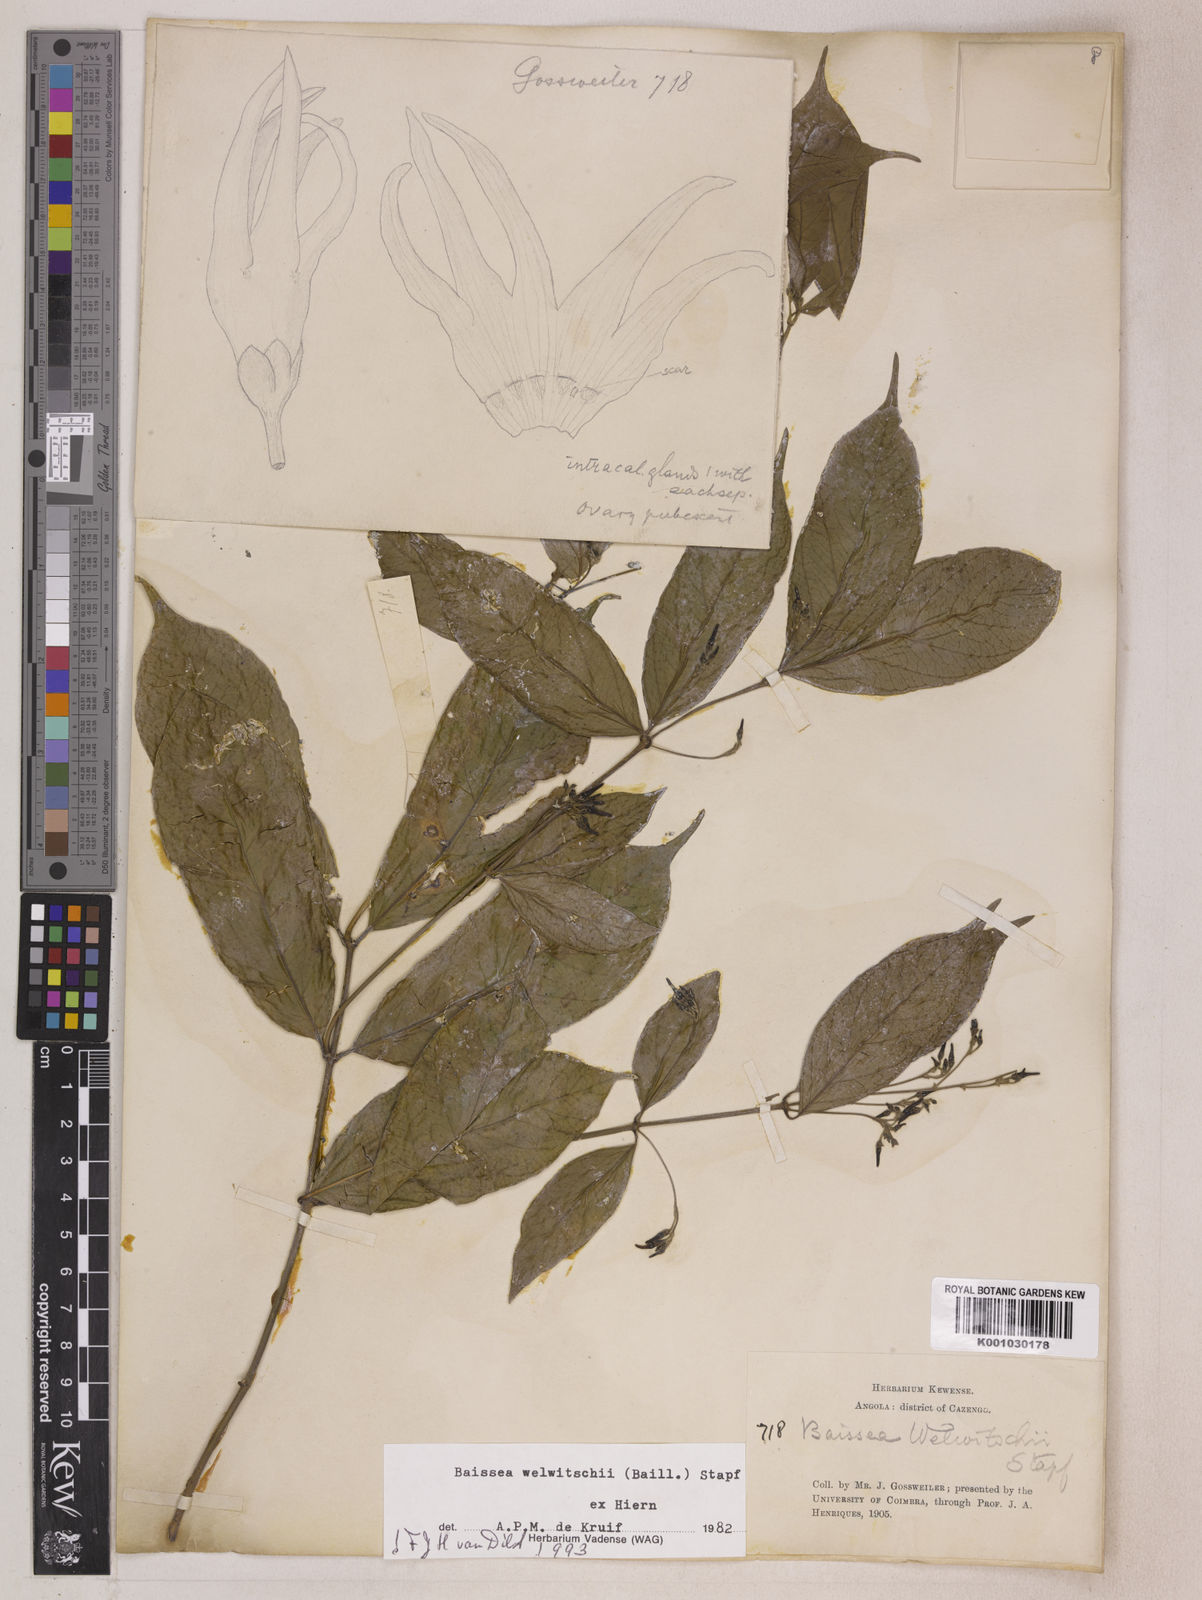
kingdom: Plantae
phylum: Tracheophyta
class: Magnoliopsida
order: Gentianales
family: Apocynaceae
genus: Baissea
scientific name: Baissea welwitschii
